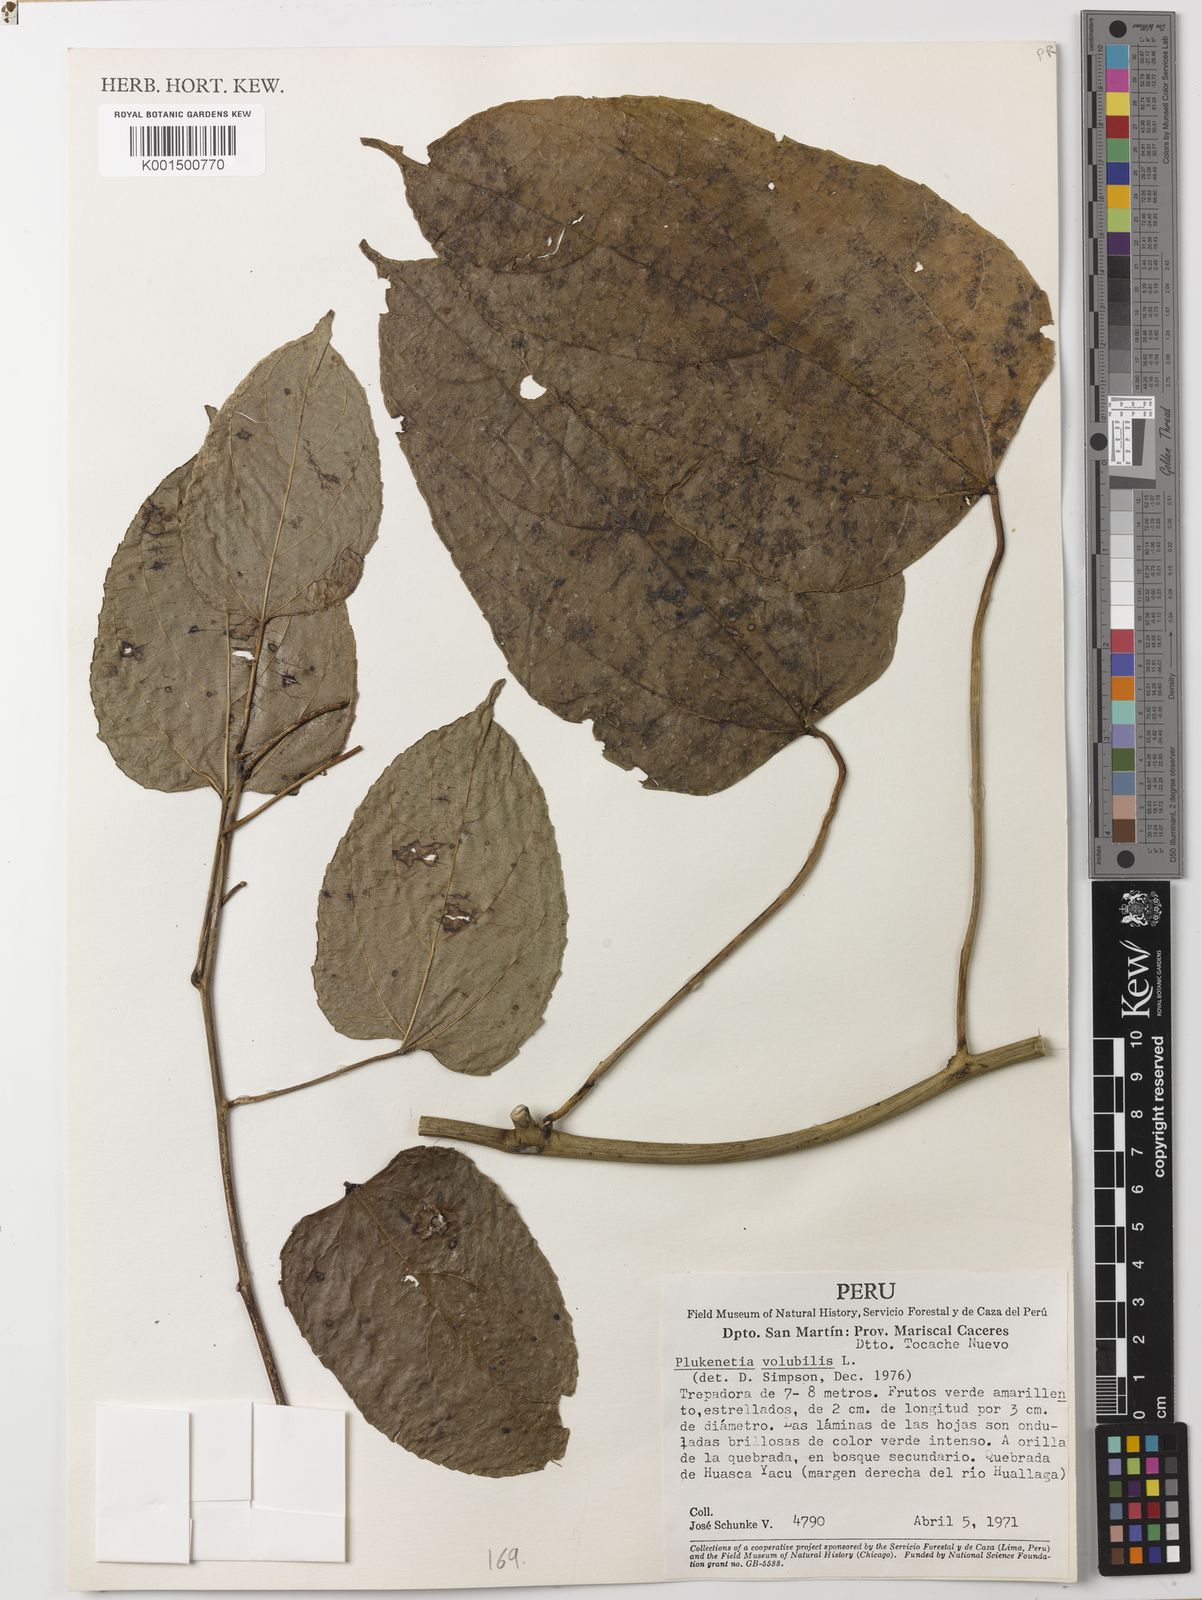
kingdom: Plantae
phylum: Tracheophyta
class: Magnoliopsida
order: Malpighiales
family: Euphorbiaceae
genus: Plukenetia
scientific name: Plukenetia volubilis
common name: Inca-peanut
